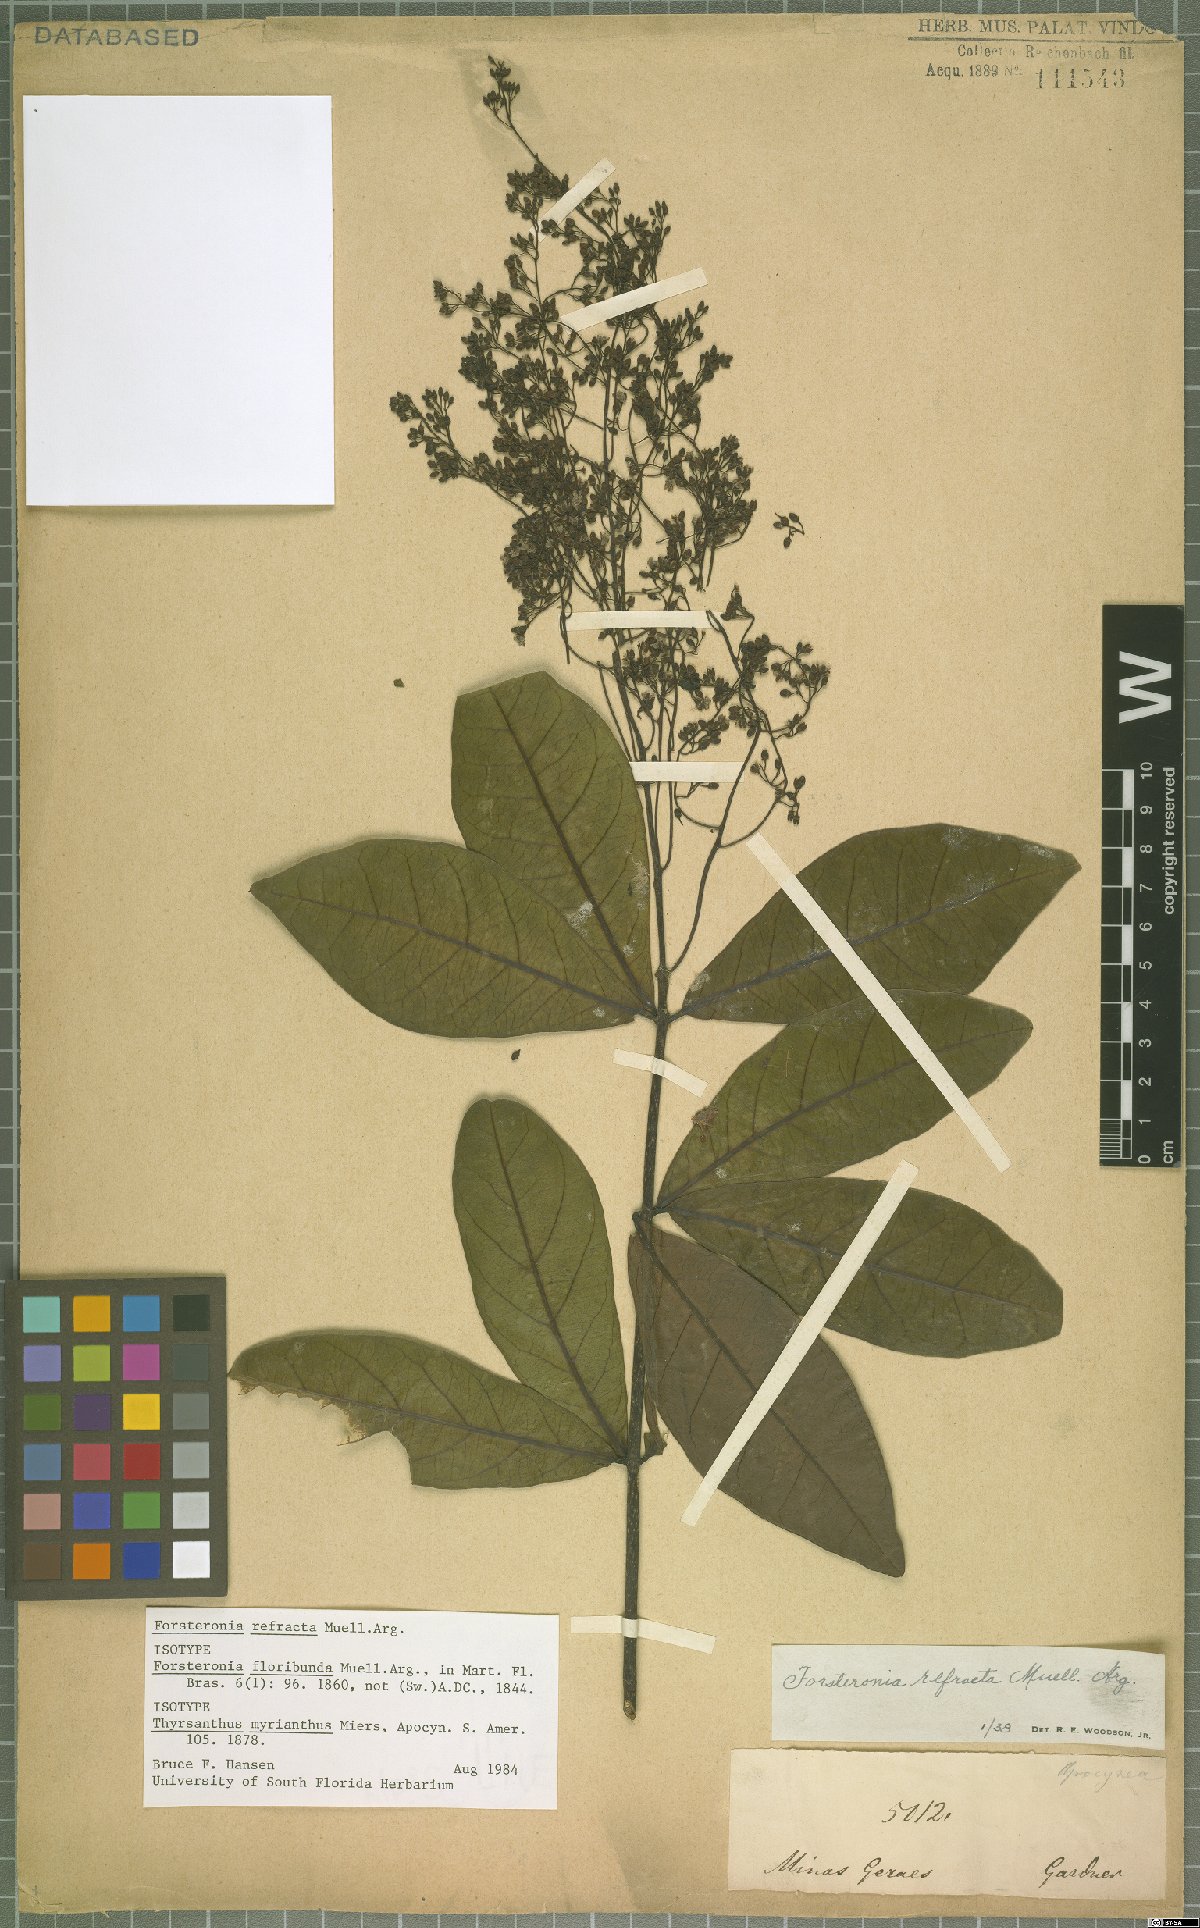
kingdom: Plantae
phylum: Tracheophyta
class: Magnoliopsida
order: Gentianales
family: Apocynaceae
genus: Forsteronia
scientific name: Forsteronia refracta
